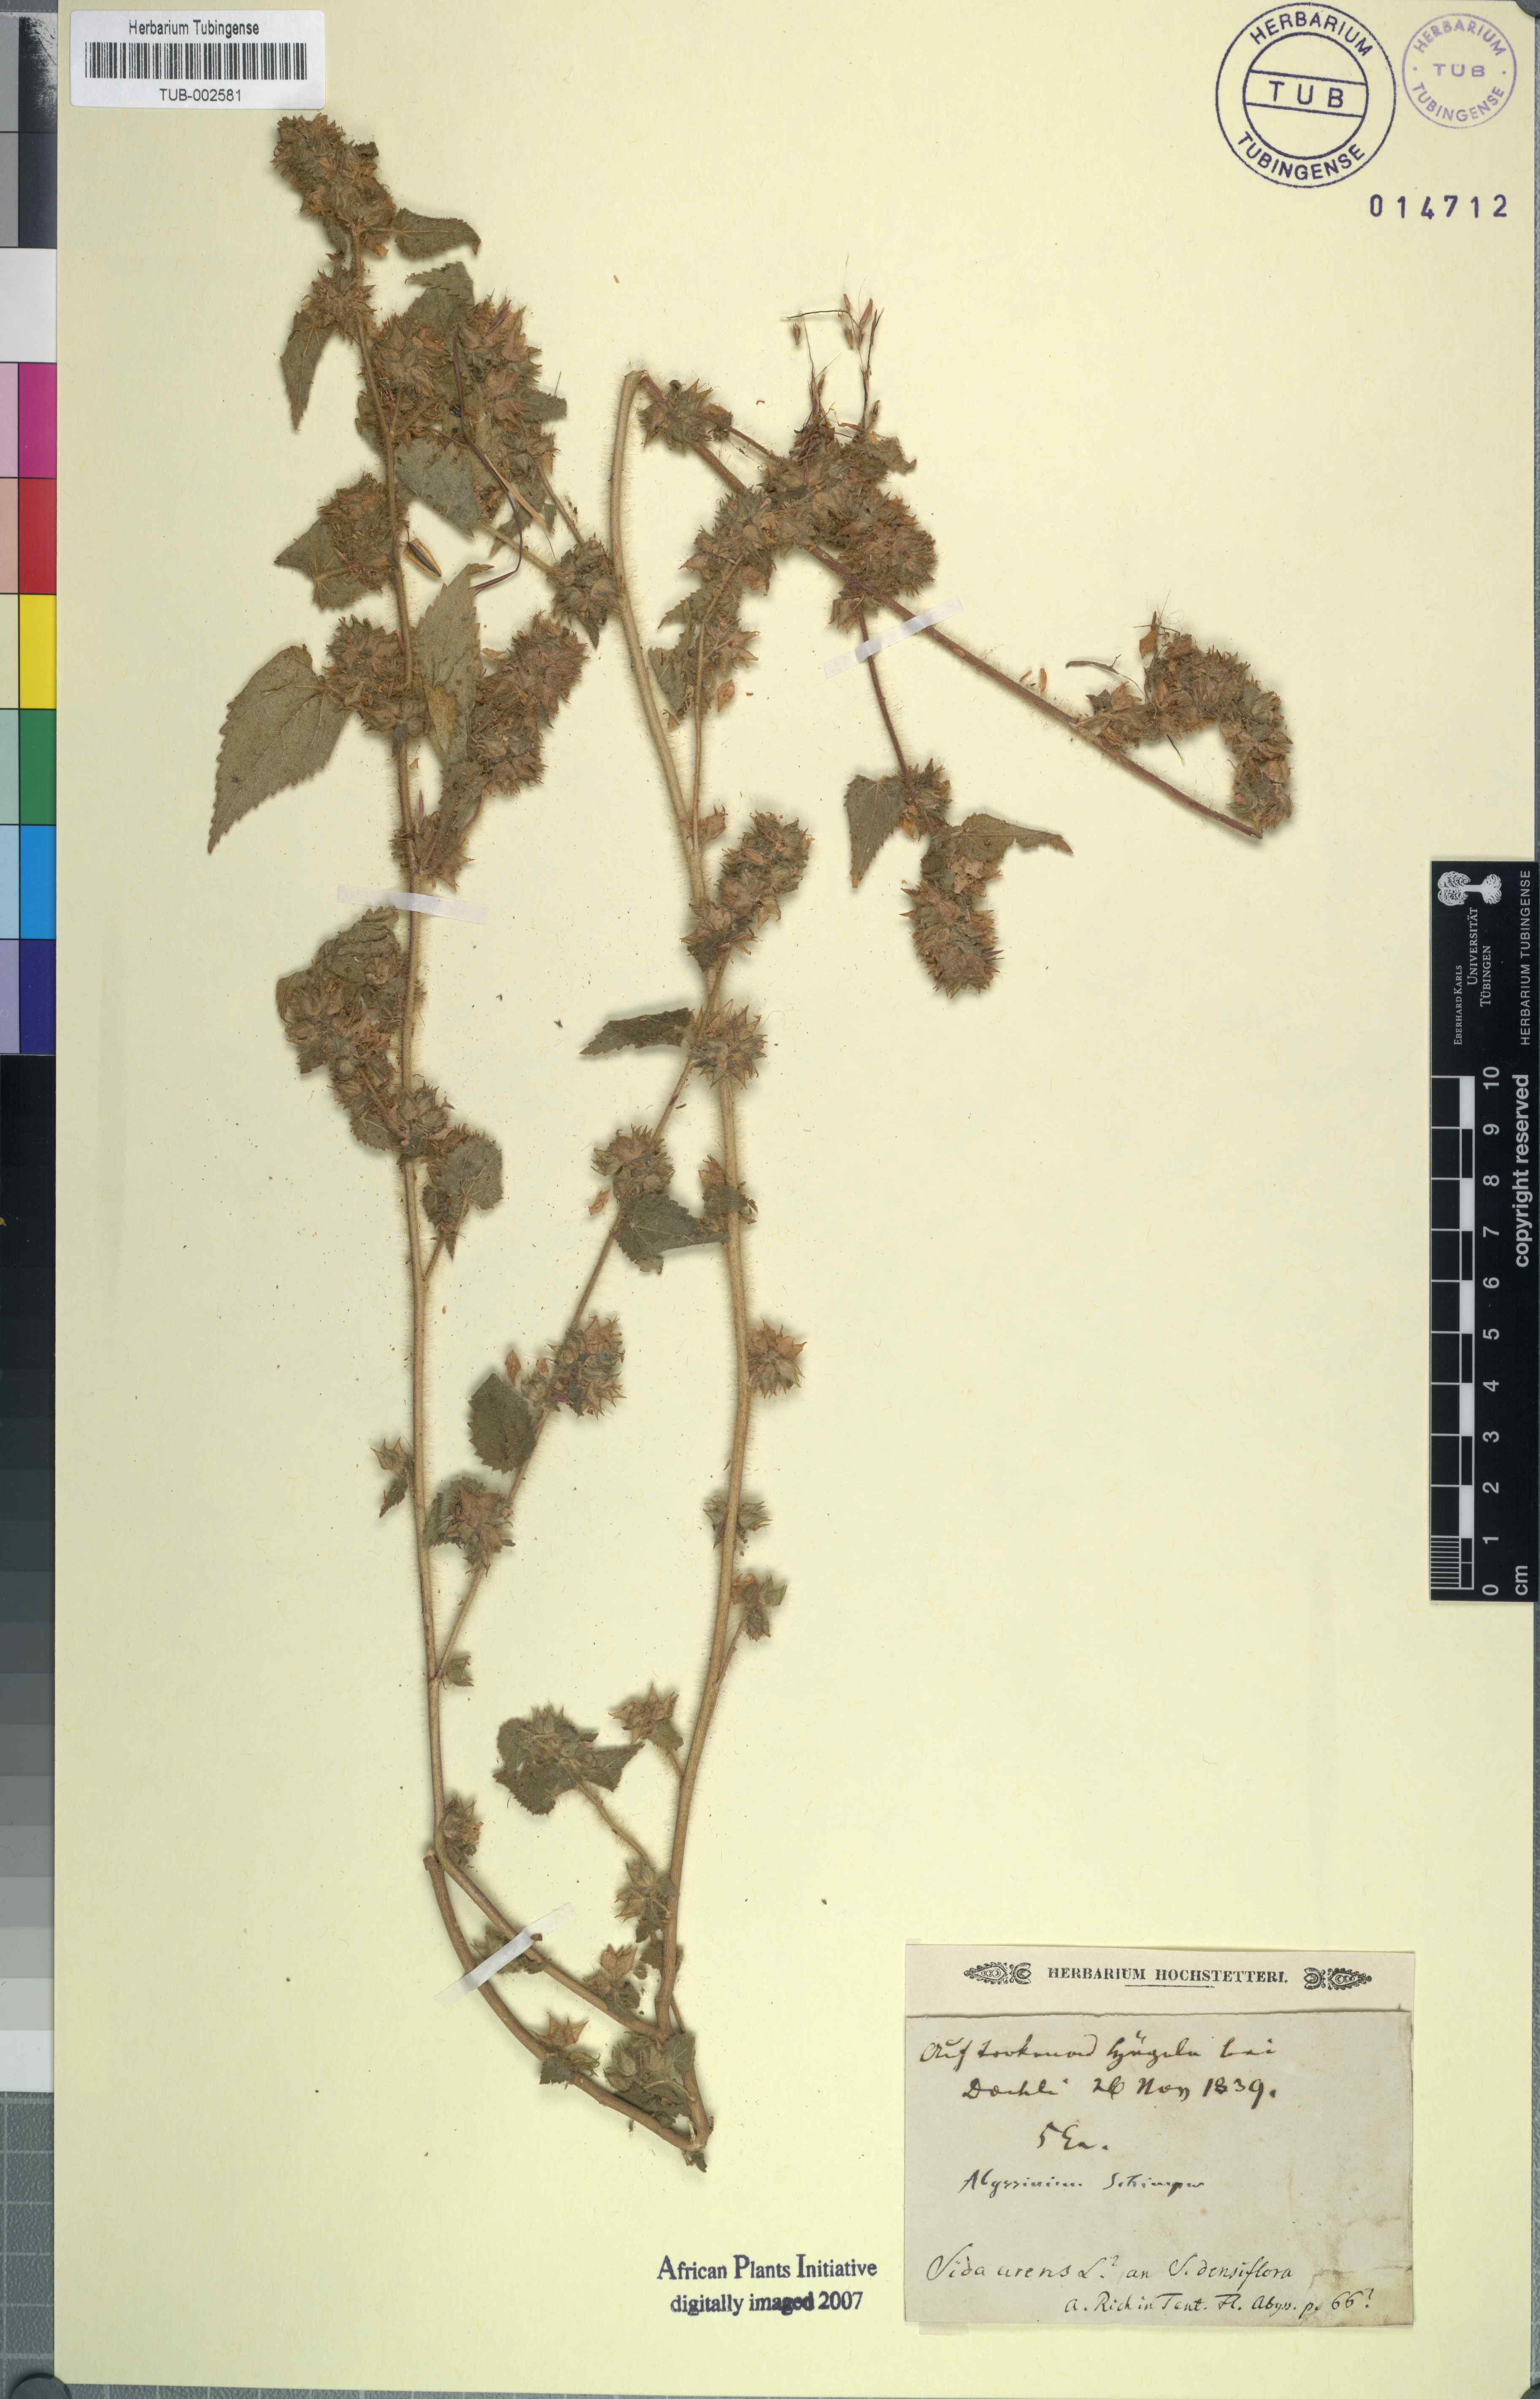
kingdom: Plantae
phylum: Tracheophyta
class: Magnoliopsida
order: Malvales
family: Malvaceae
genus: Sida
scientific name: Sida urens
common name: Tropical fanpetals
